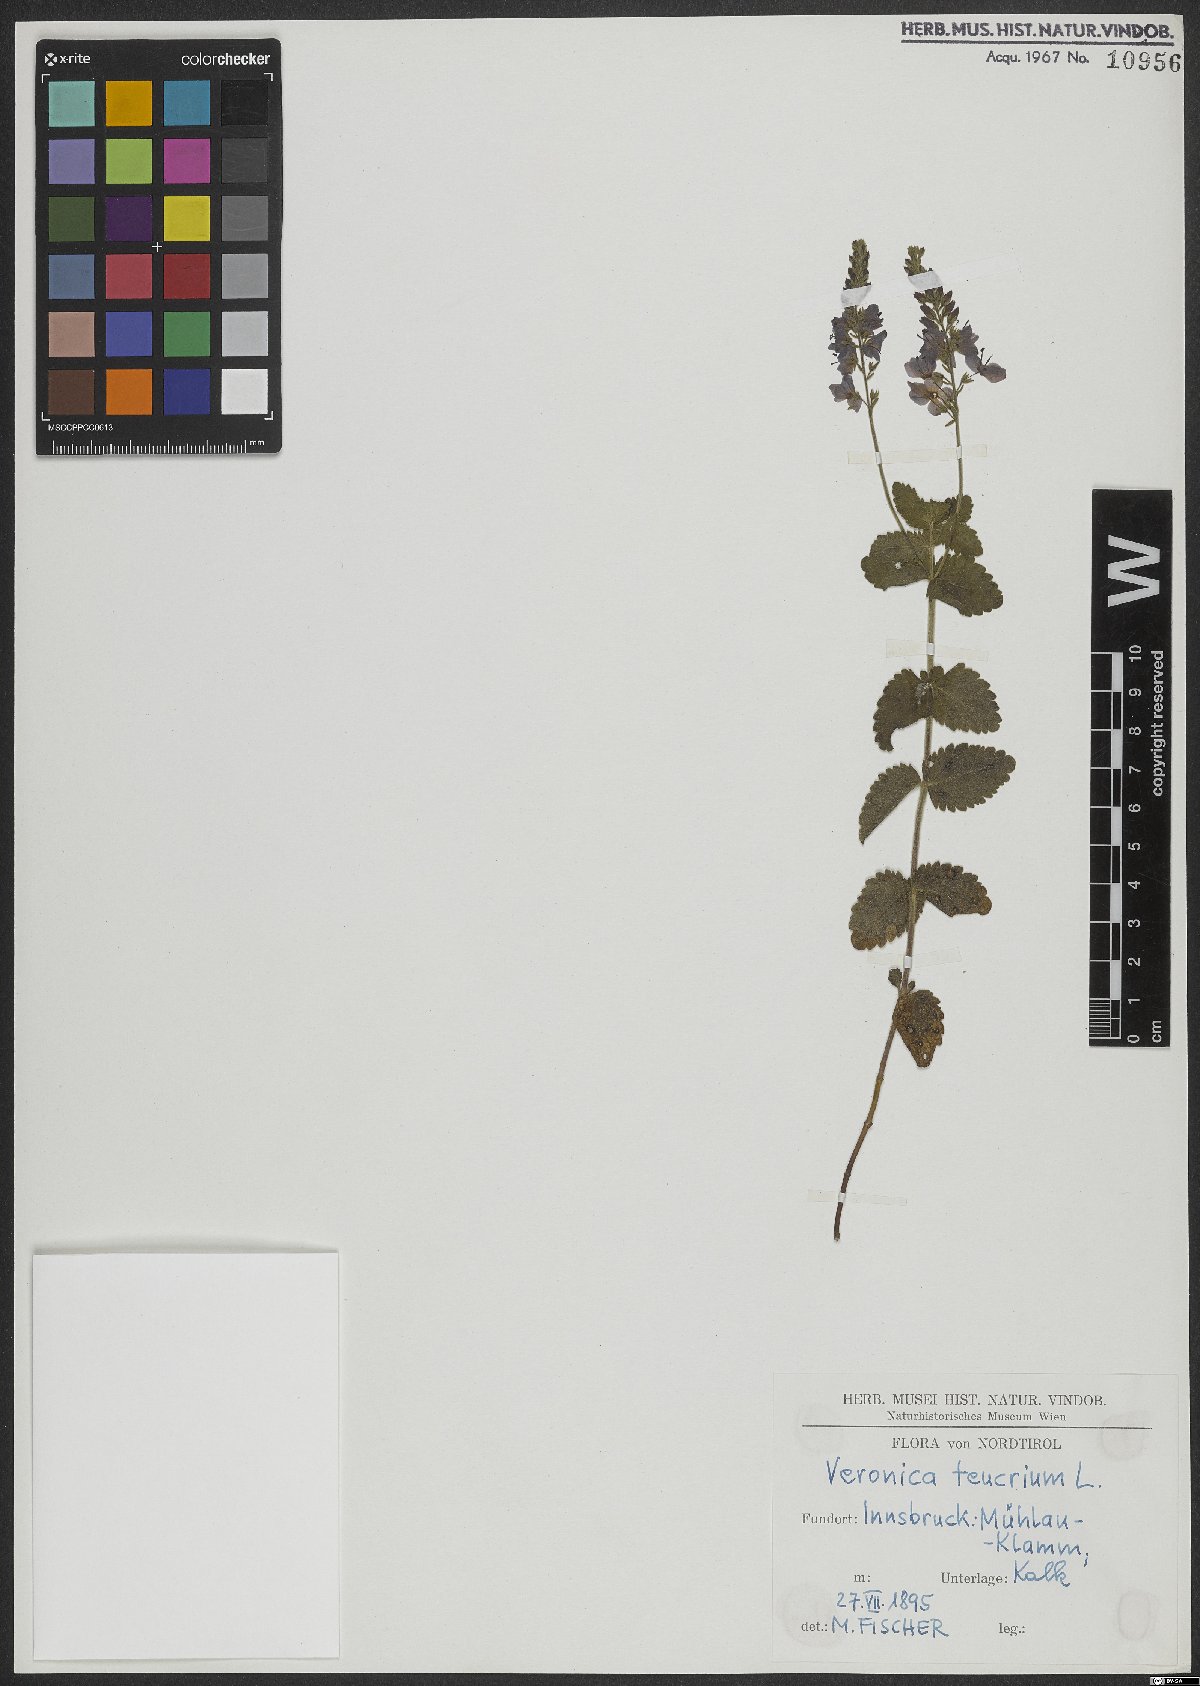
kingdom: Plantae
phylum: Tracheophyta
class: Magnoliopsida
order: Lamiales
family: Plantaginaceae
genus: Veronica
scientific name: Veronica teucrium
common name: Large speedwell
